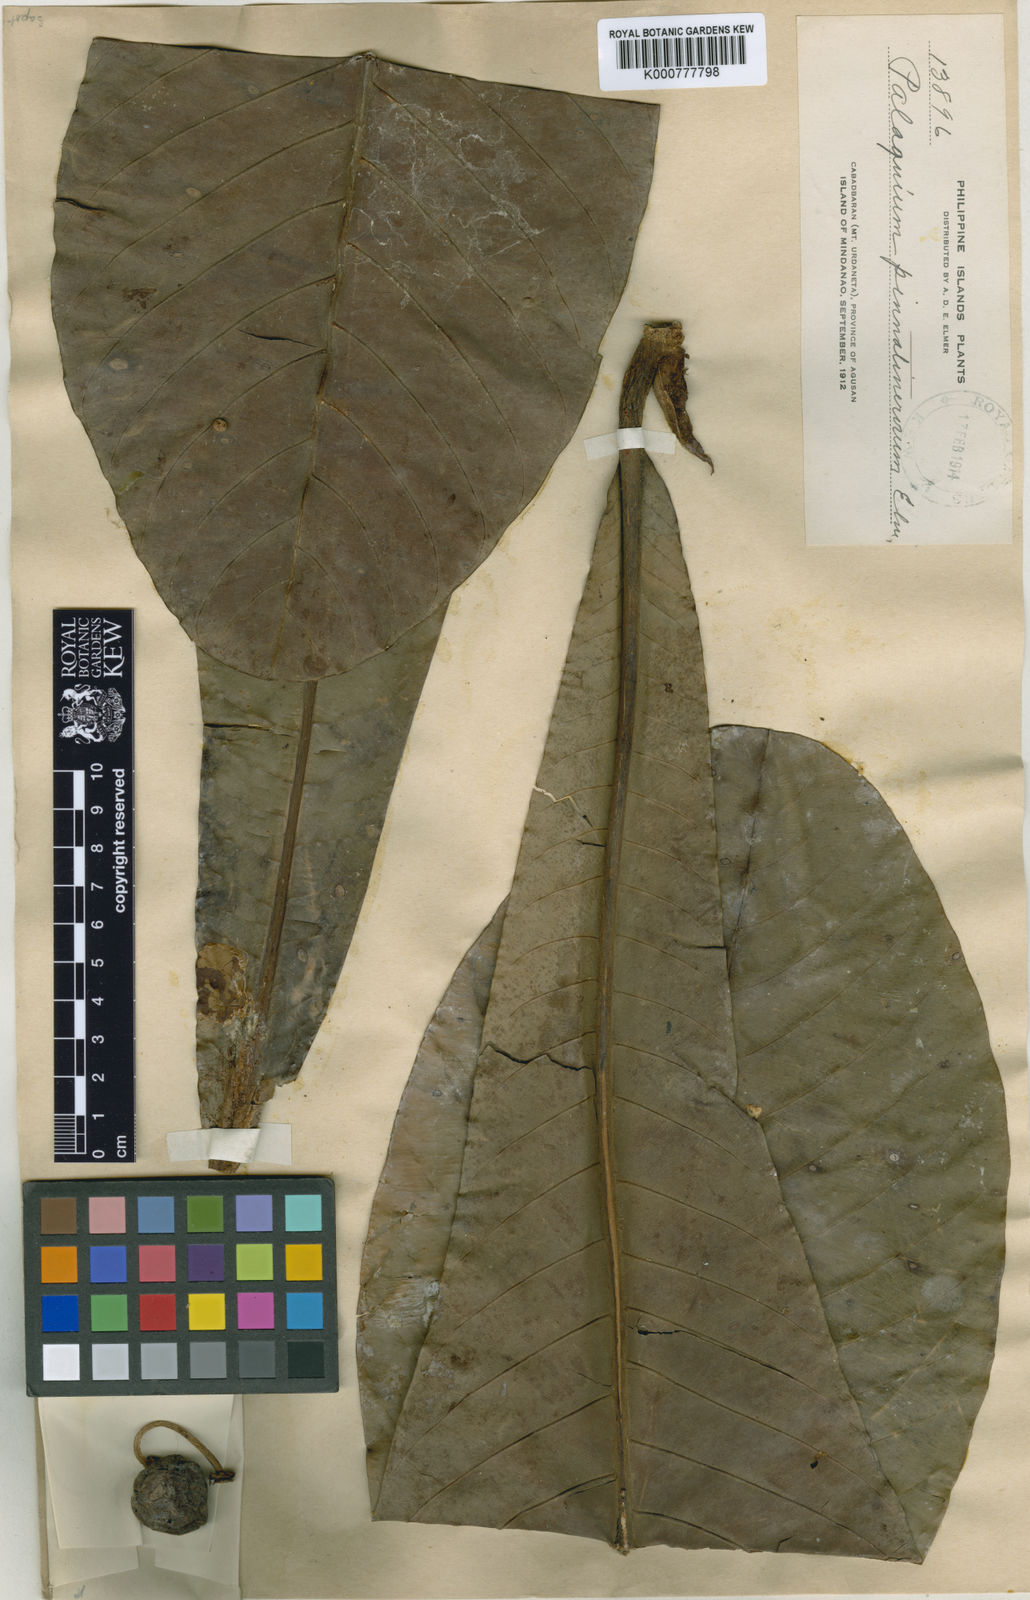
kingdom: Plantae
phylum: Tracheophyta
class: Magnoliopsida
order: Ericales
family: Sapotaceae
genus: Palaquium
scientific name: Palaquium pinnatinervium
